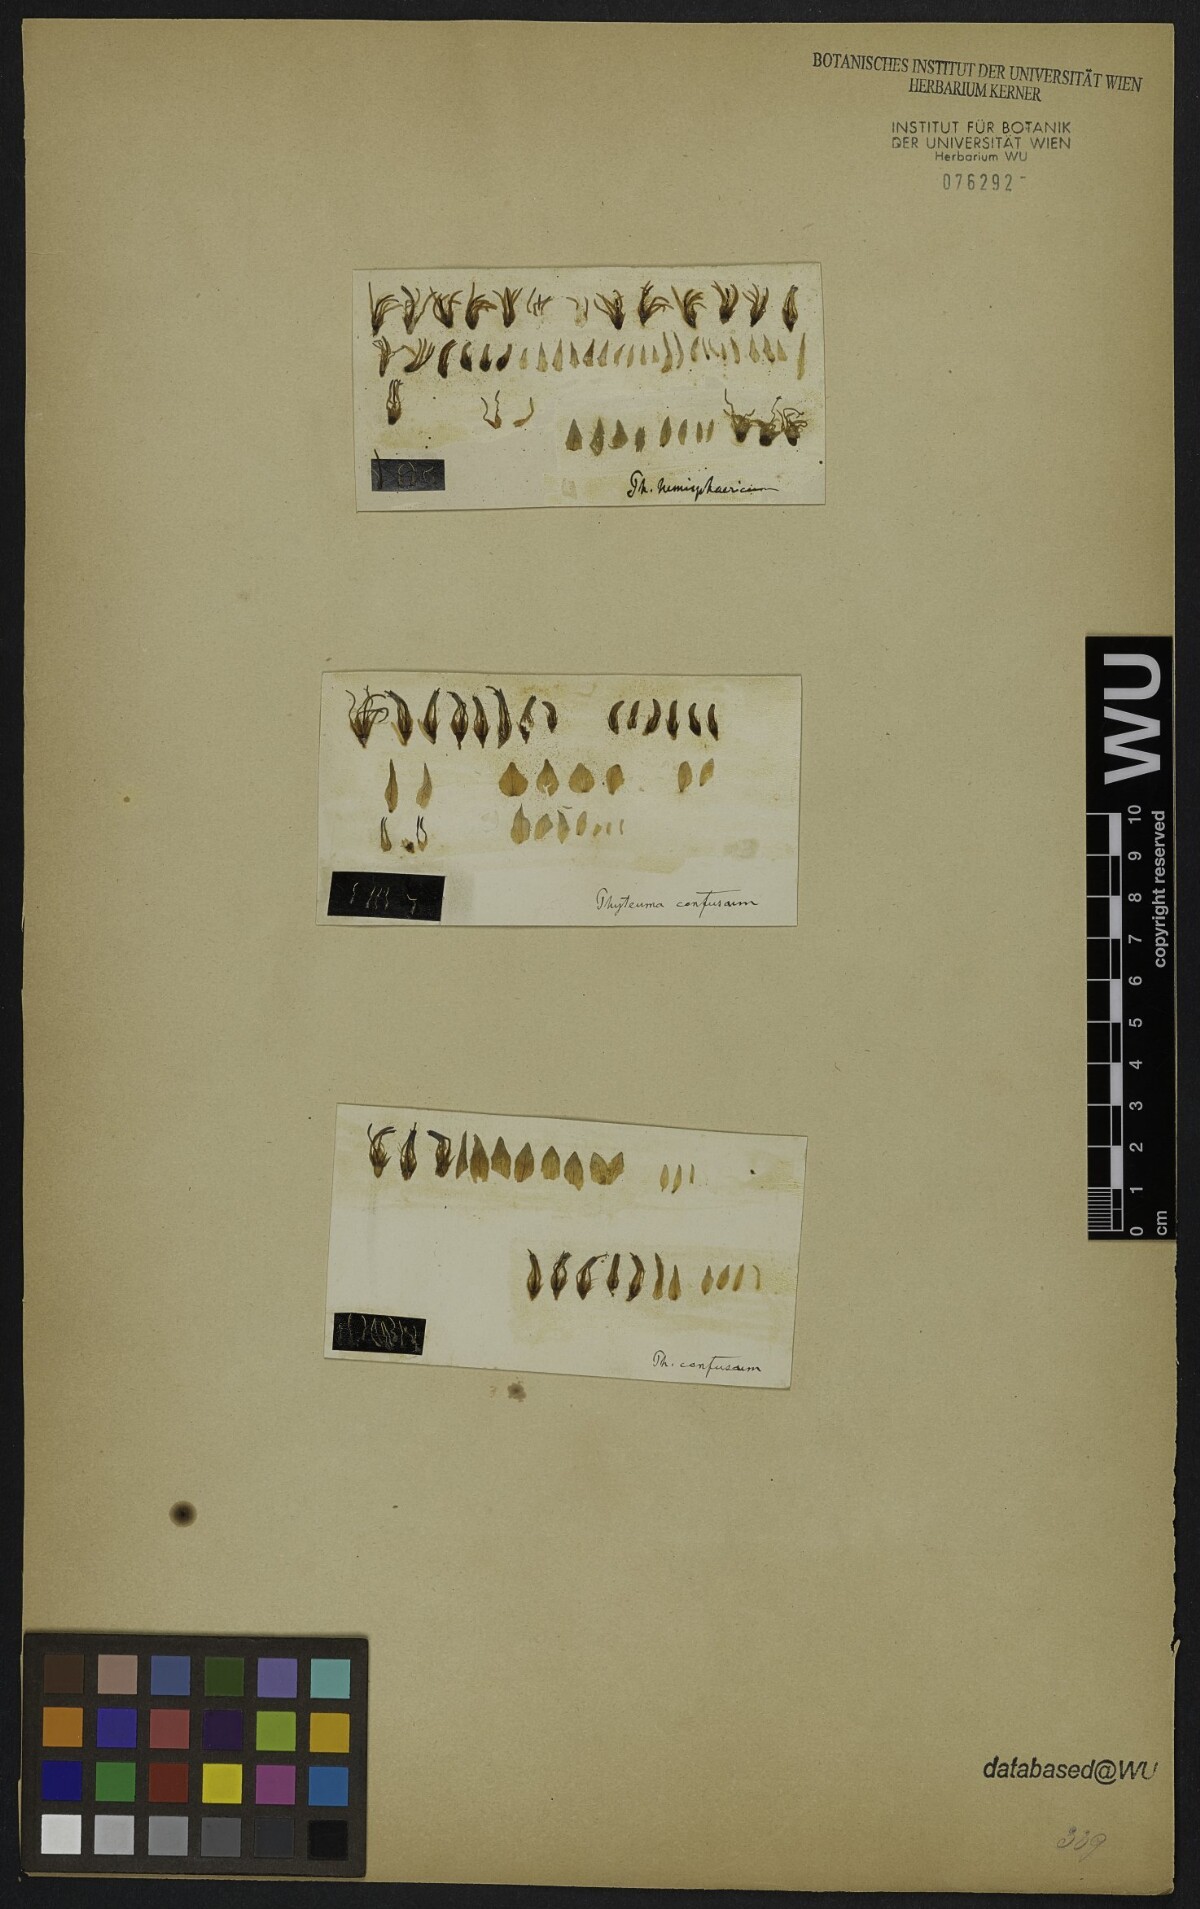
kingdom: Plantae
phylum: Tracheophyta
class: Magnoliopsida
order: Asterales
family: Campanulaceae
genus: Phyteuma
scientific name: Phyteuma confusum
